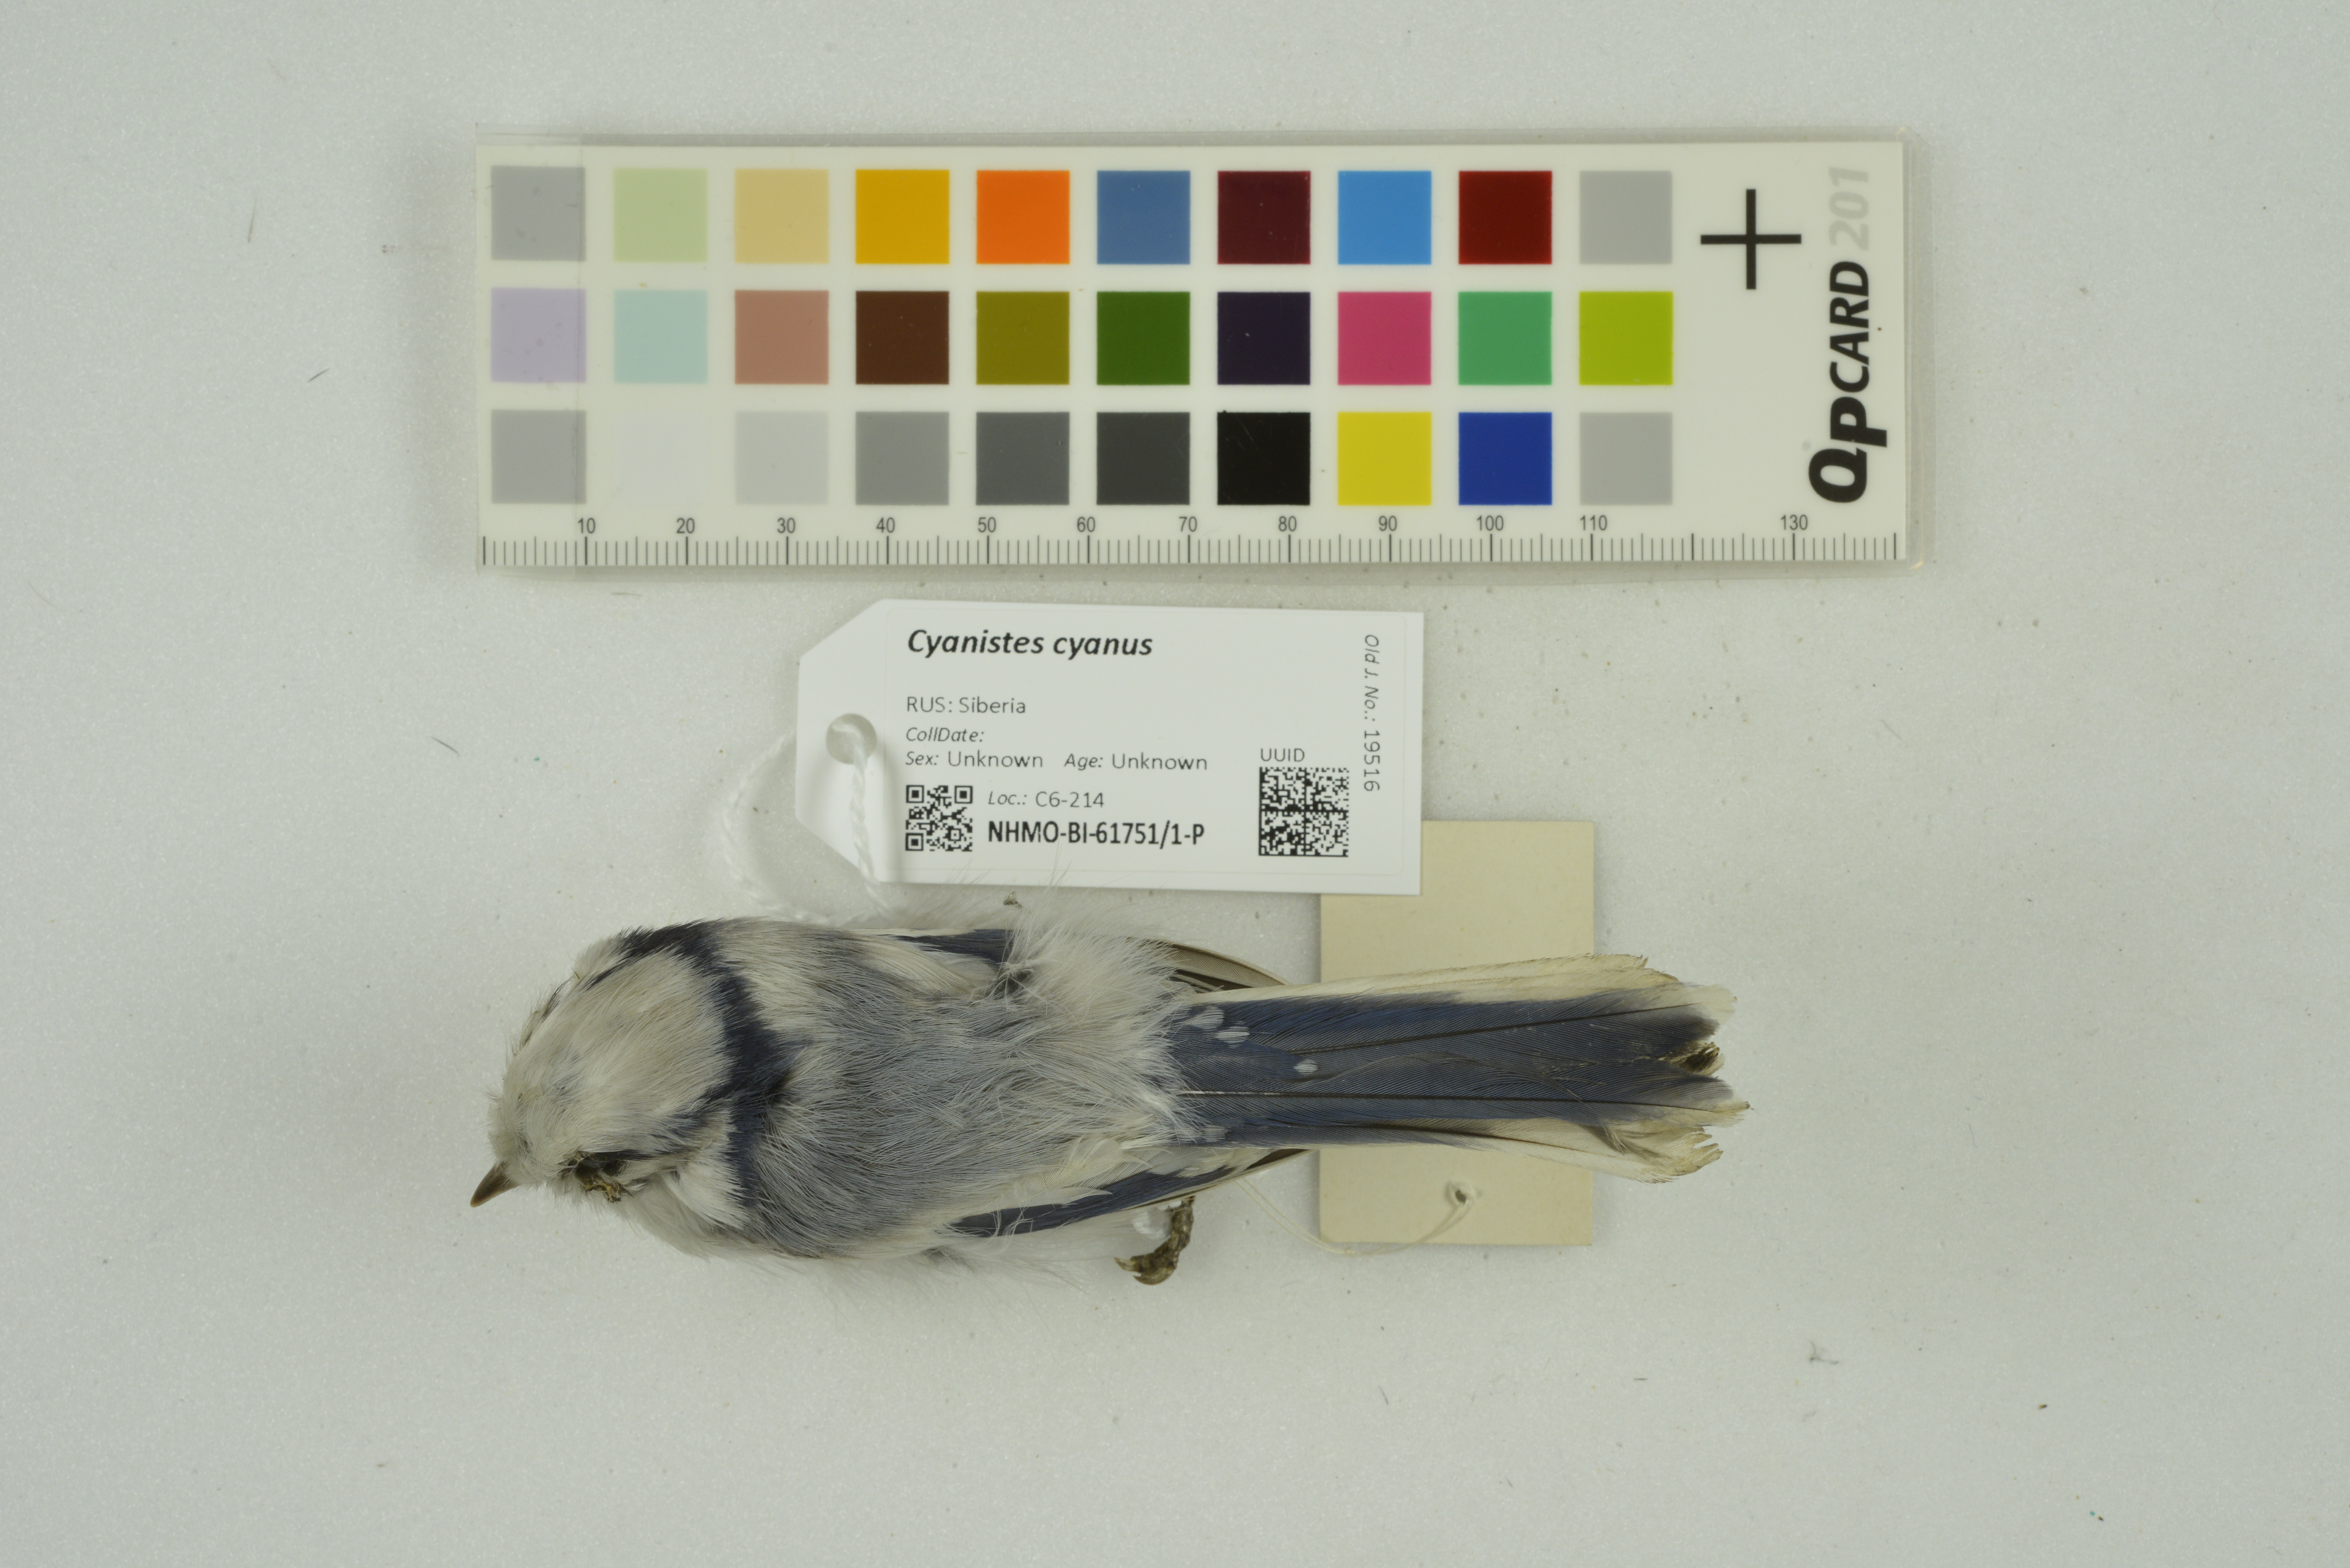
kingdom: Animalia
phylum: Chordata
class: Aves
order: Passeriformes
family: Paridae
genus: Cyanistes
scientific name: Cyanistes cyanus
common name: Azure tit
